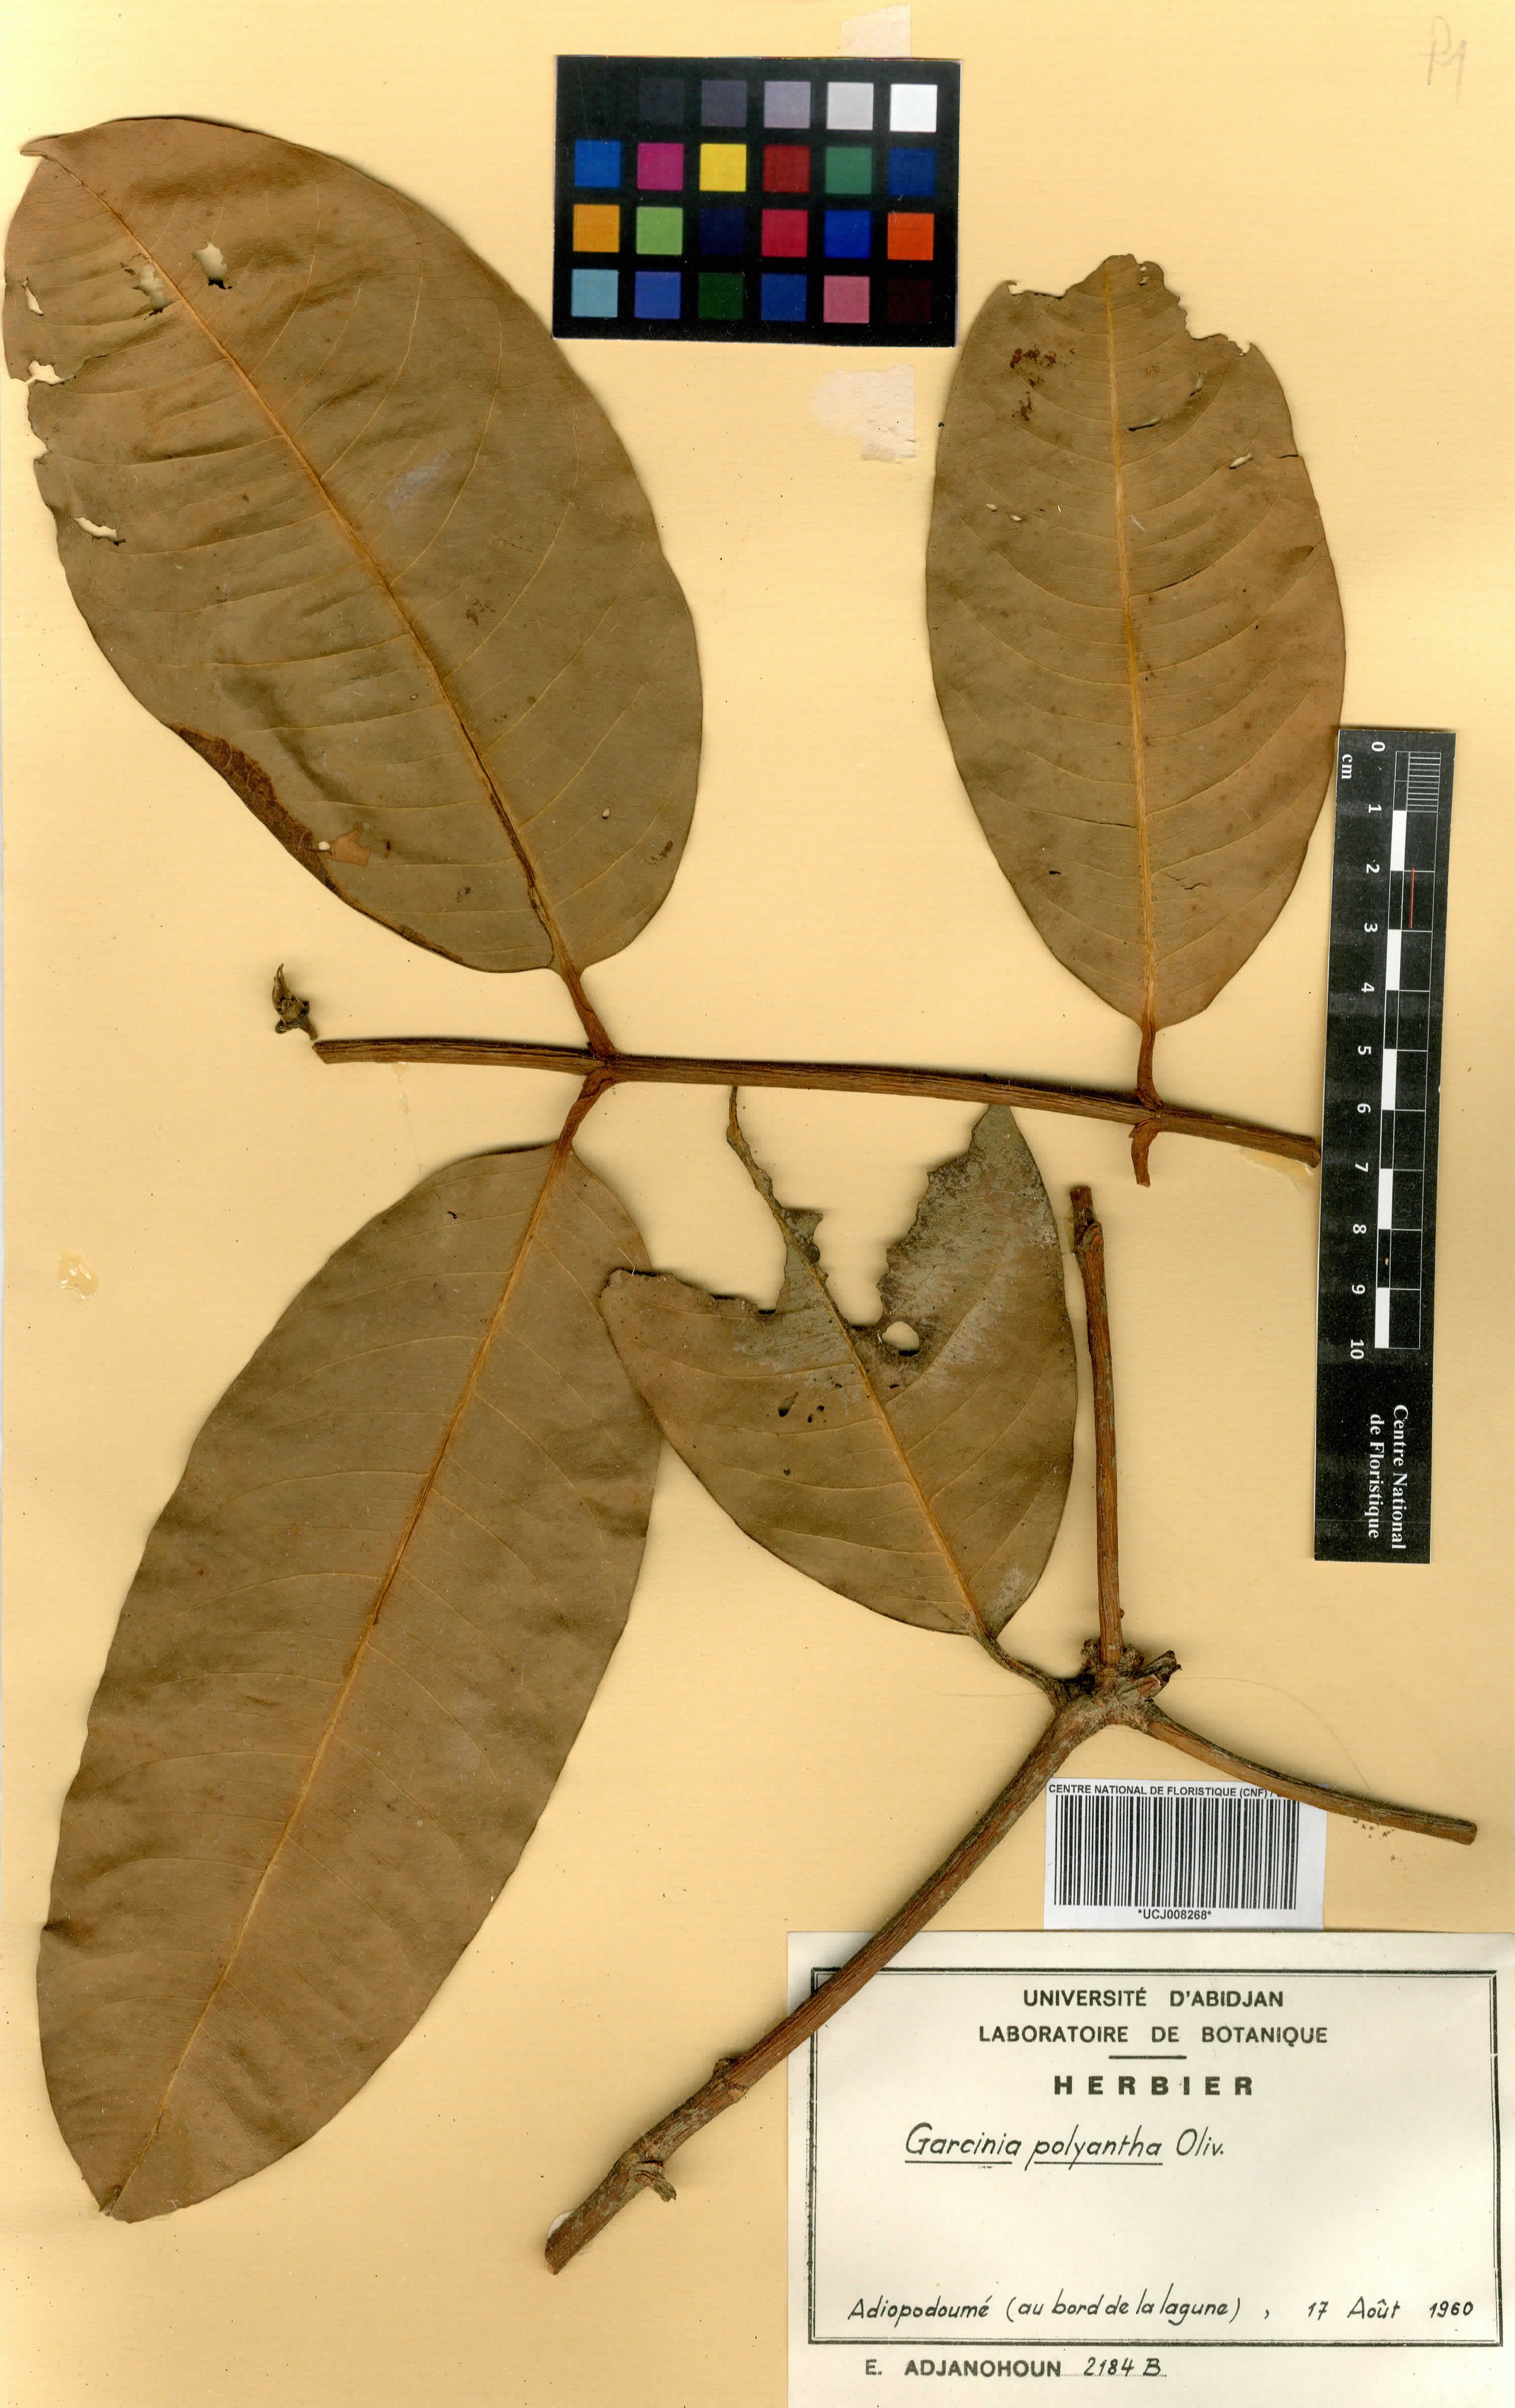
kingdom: Plantae
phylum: Tracheophyta
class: Magnoliopsida
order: Malpighiales
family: Clusiaceae
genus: Garcinia
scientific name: Garcinia smeathmannii
